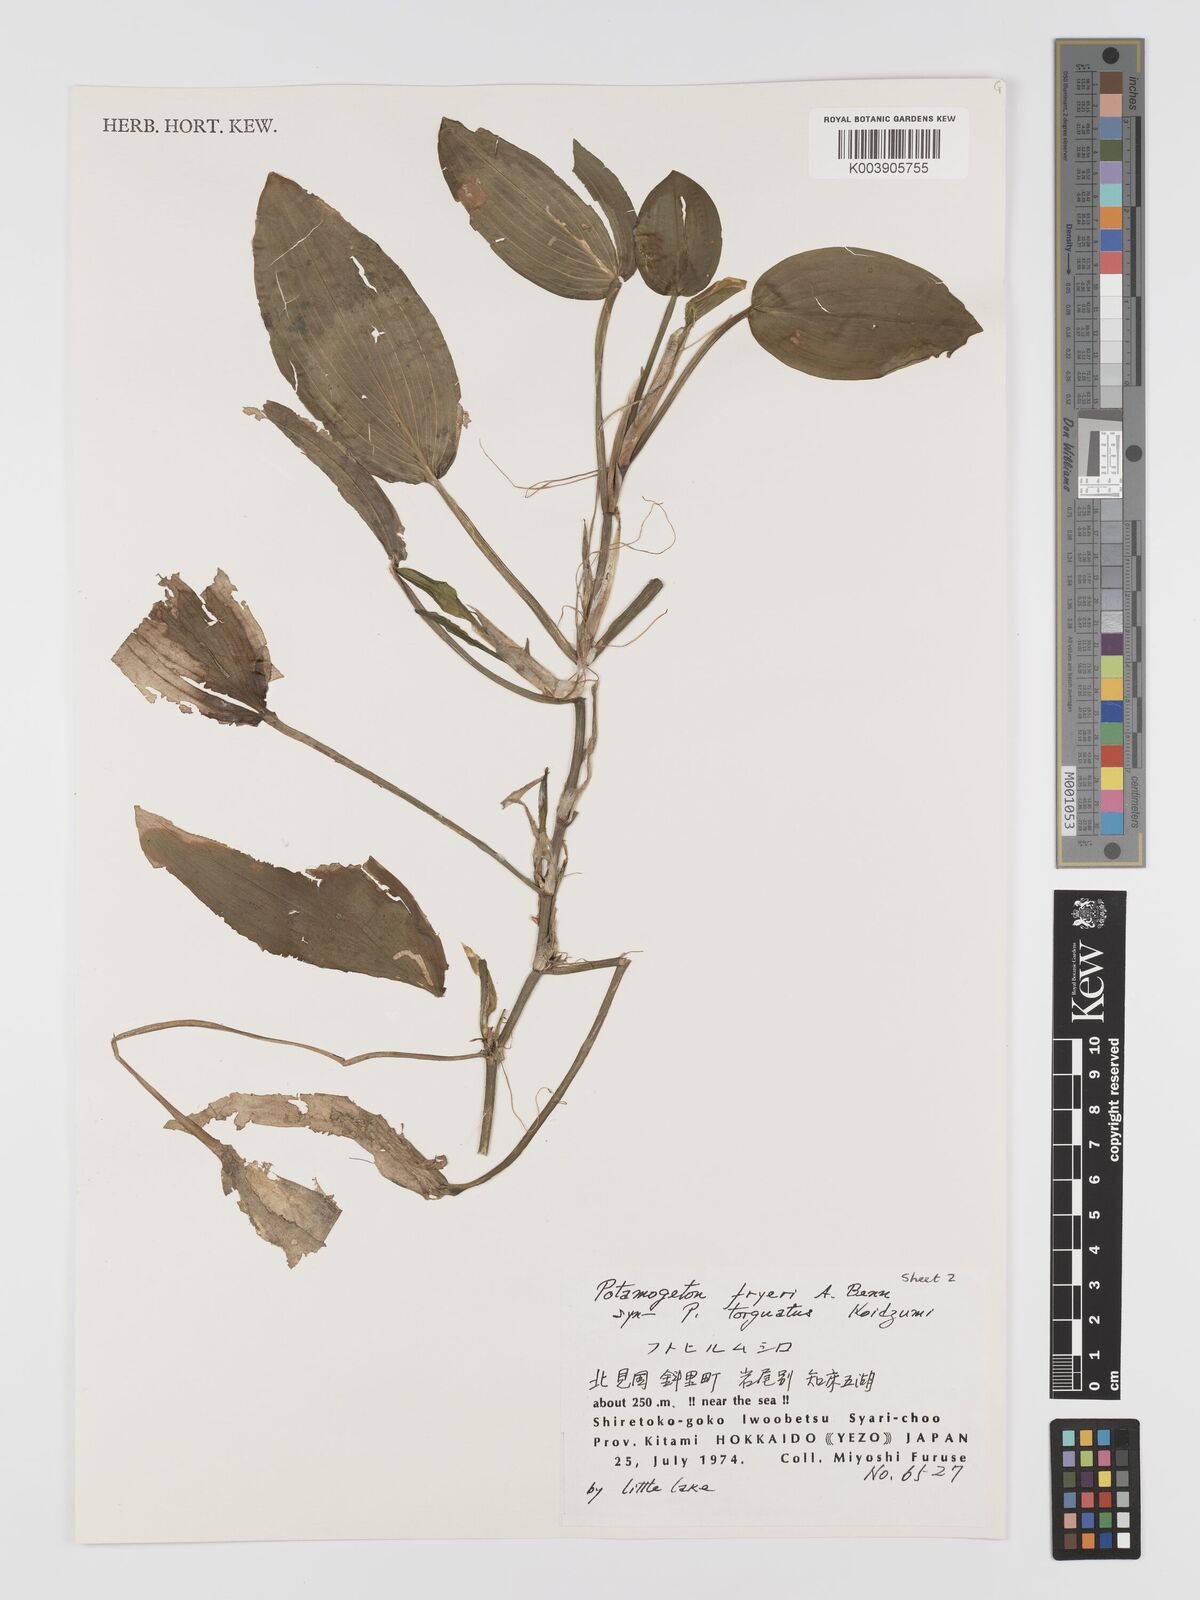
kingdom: Plantae
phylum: Tracheophyta
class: Liliopsida
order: Alismatales
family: Potamogetonaceae
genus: Potamogeton
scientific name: Potamogeton fryeri
